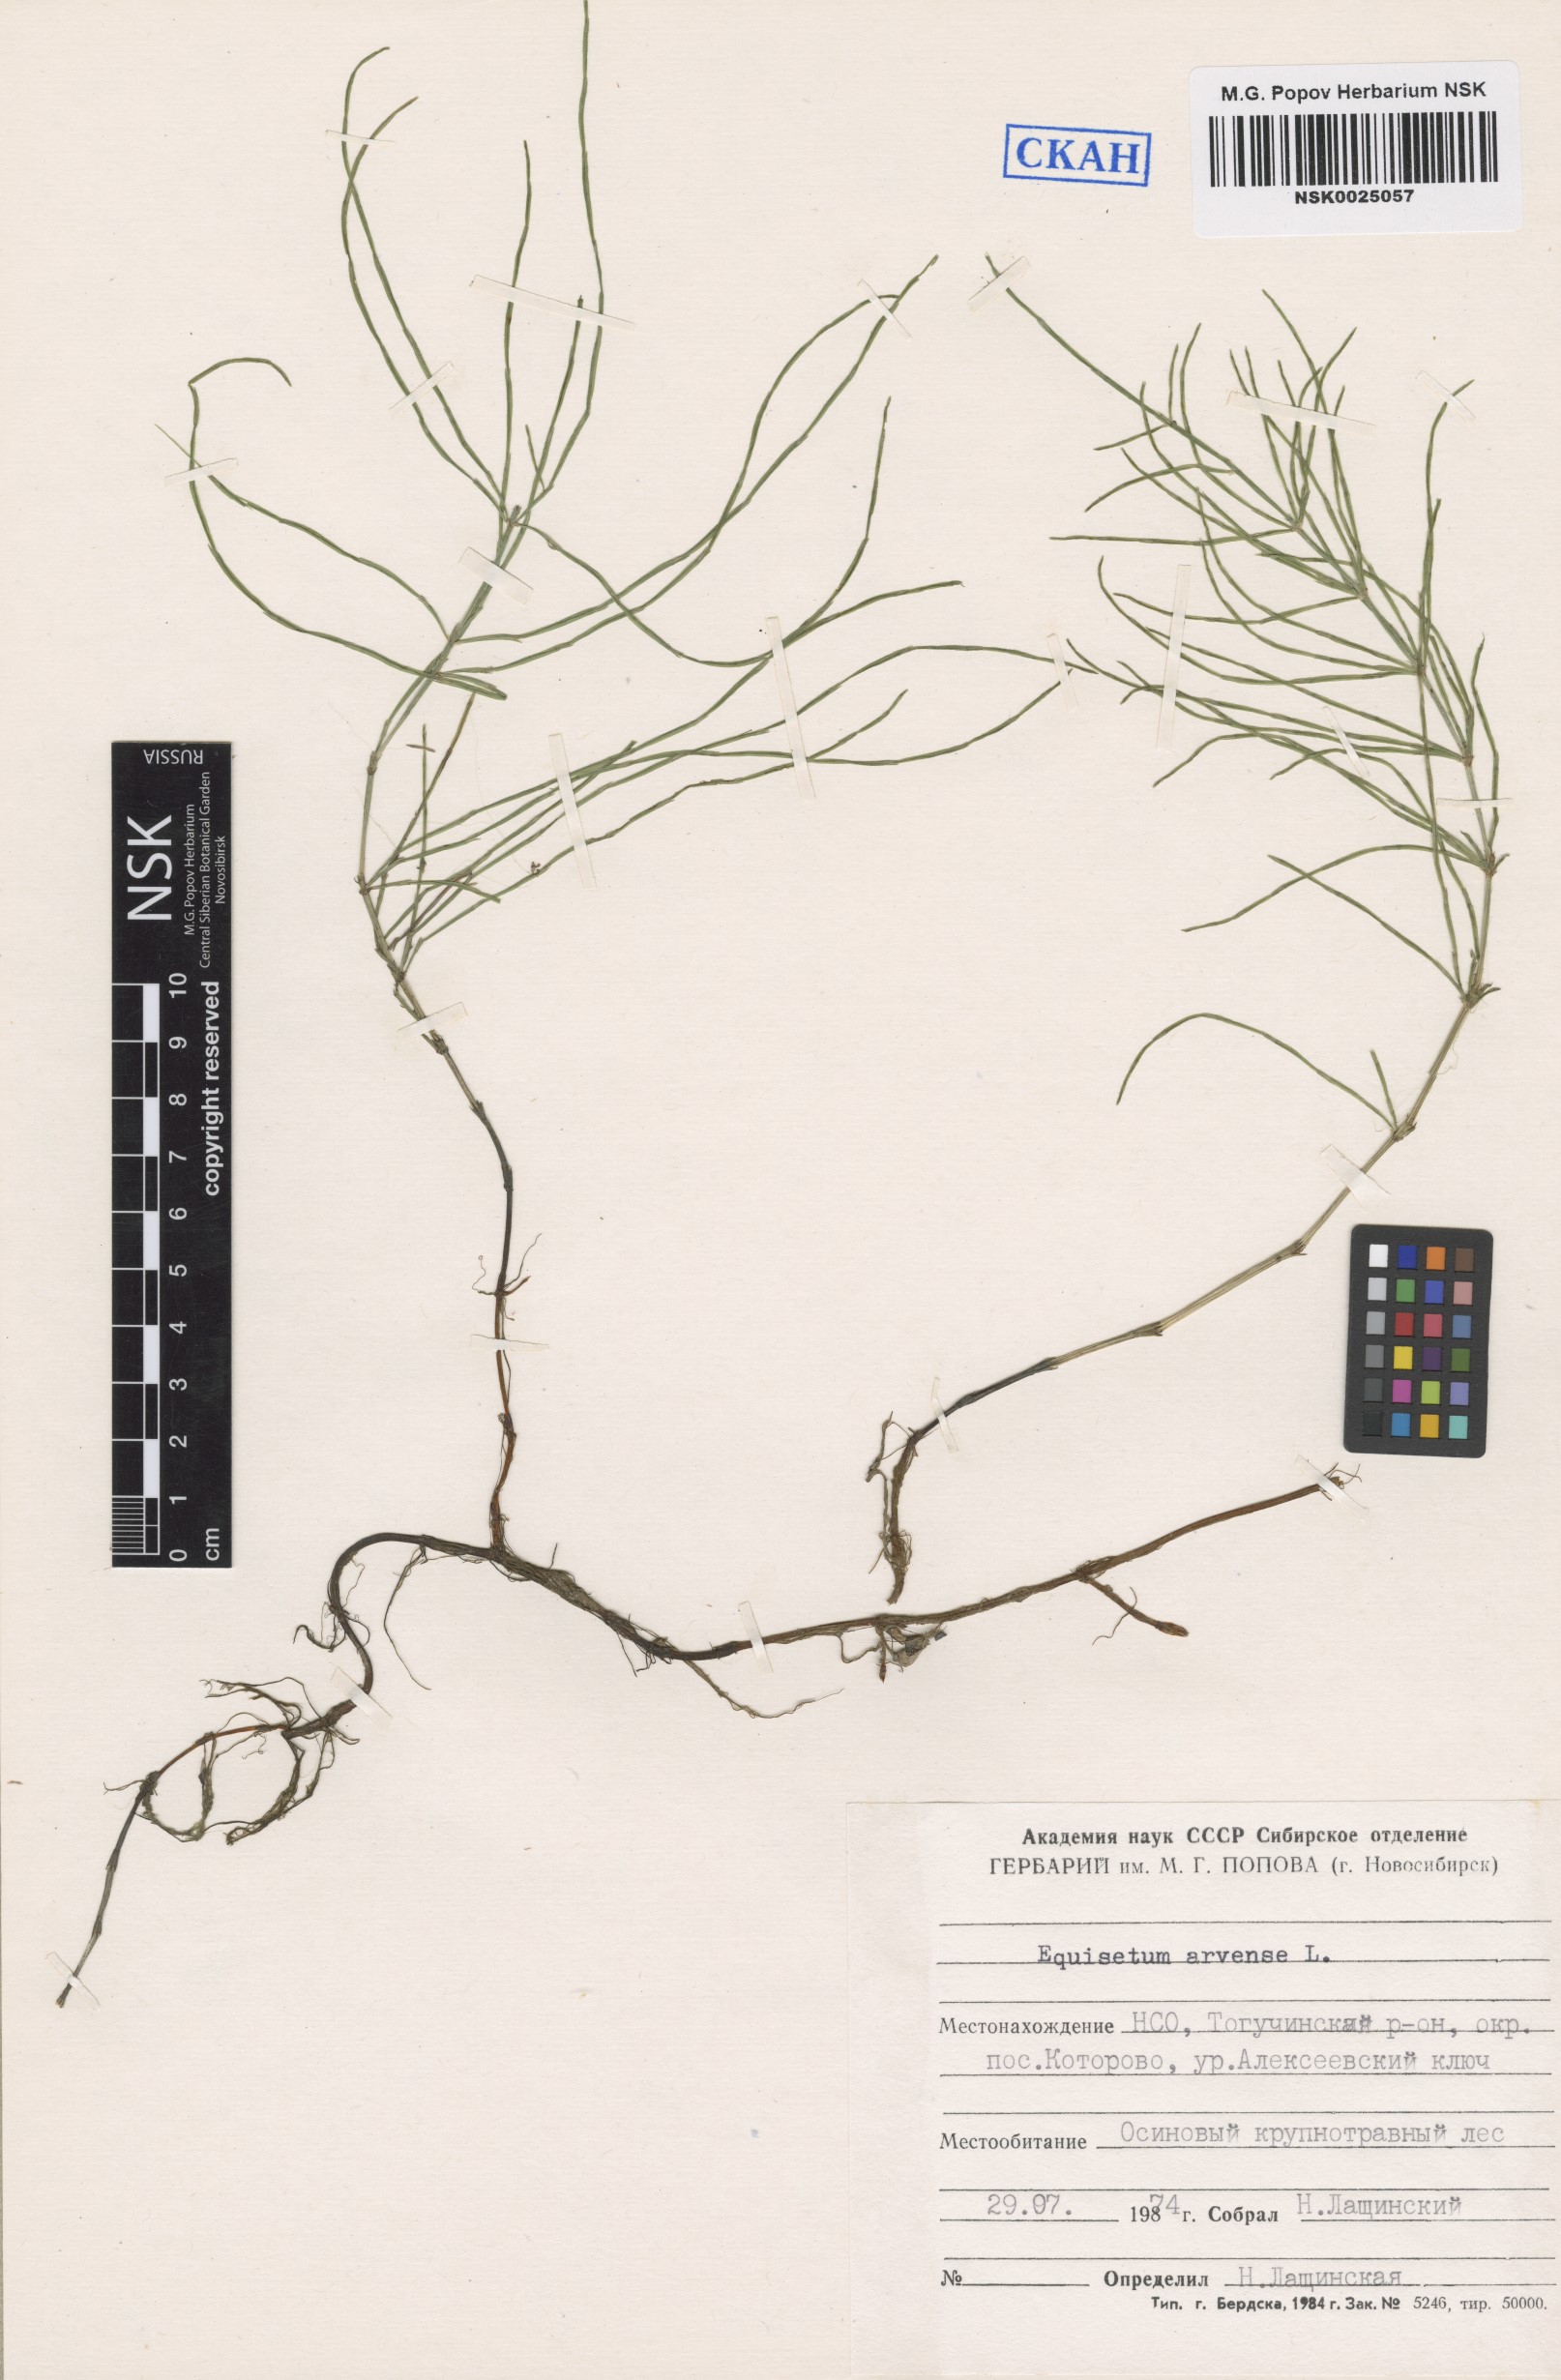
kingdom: Plantae
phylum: Tracheophyta
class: Polypodiopsida
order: Equisetales
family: Equisetaceae
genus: Equisetum
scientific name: Equisetum arvense
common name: Field horsetail
